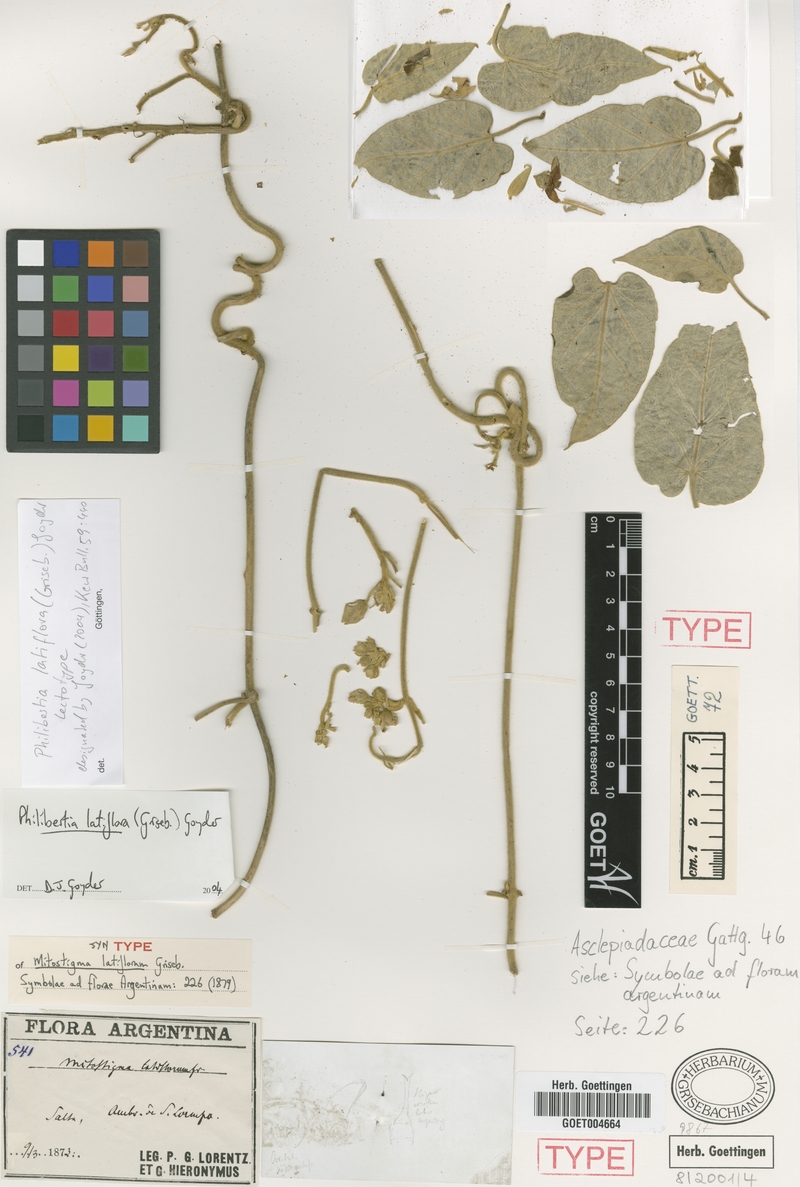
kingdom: Plantae
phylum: Tracheophyta
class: Magnoliopsida
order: Gentianales
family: Apocynaceae
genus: Philibertia
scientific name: Philibertia latiflora
